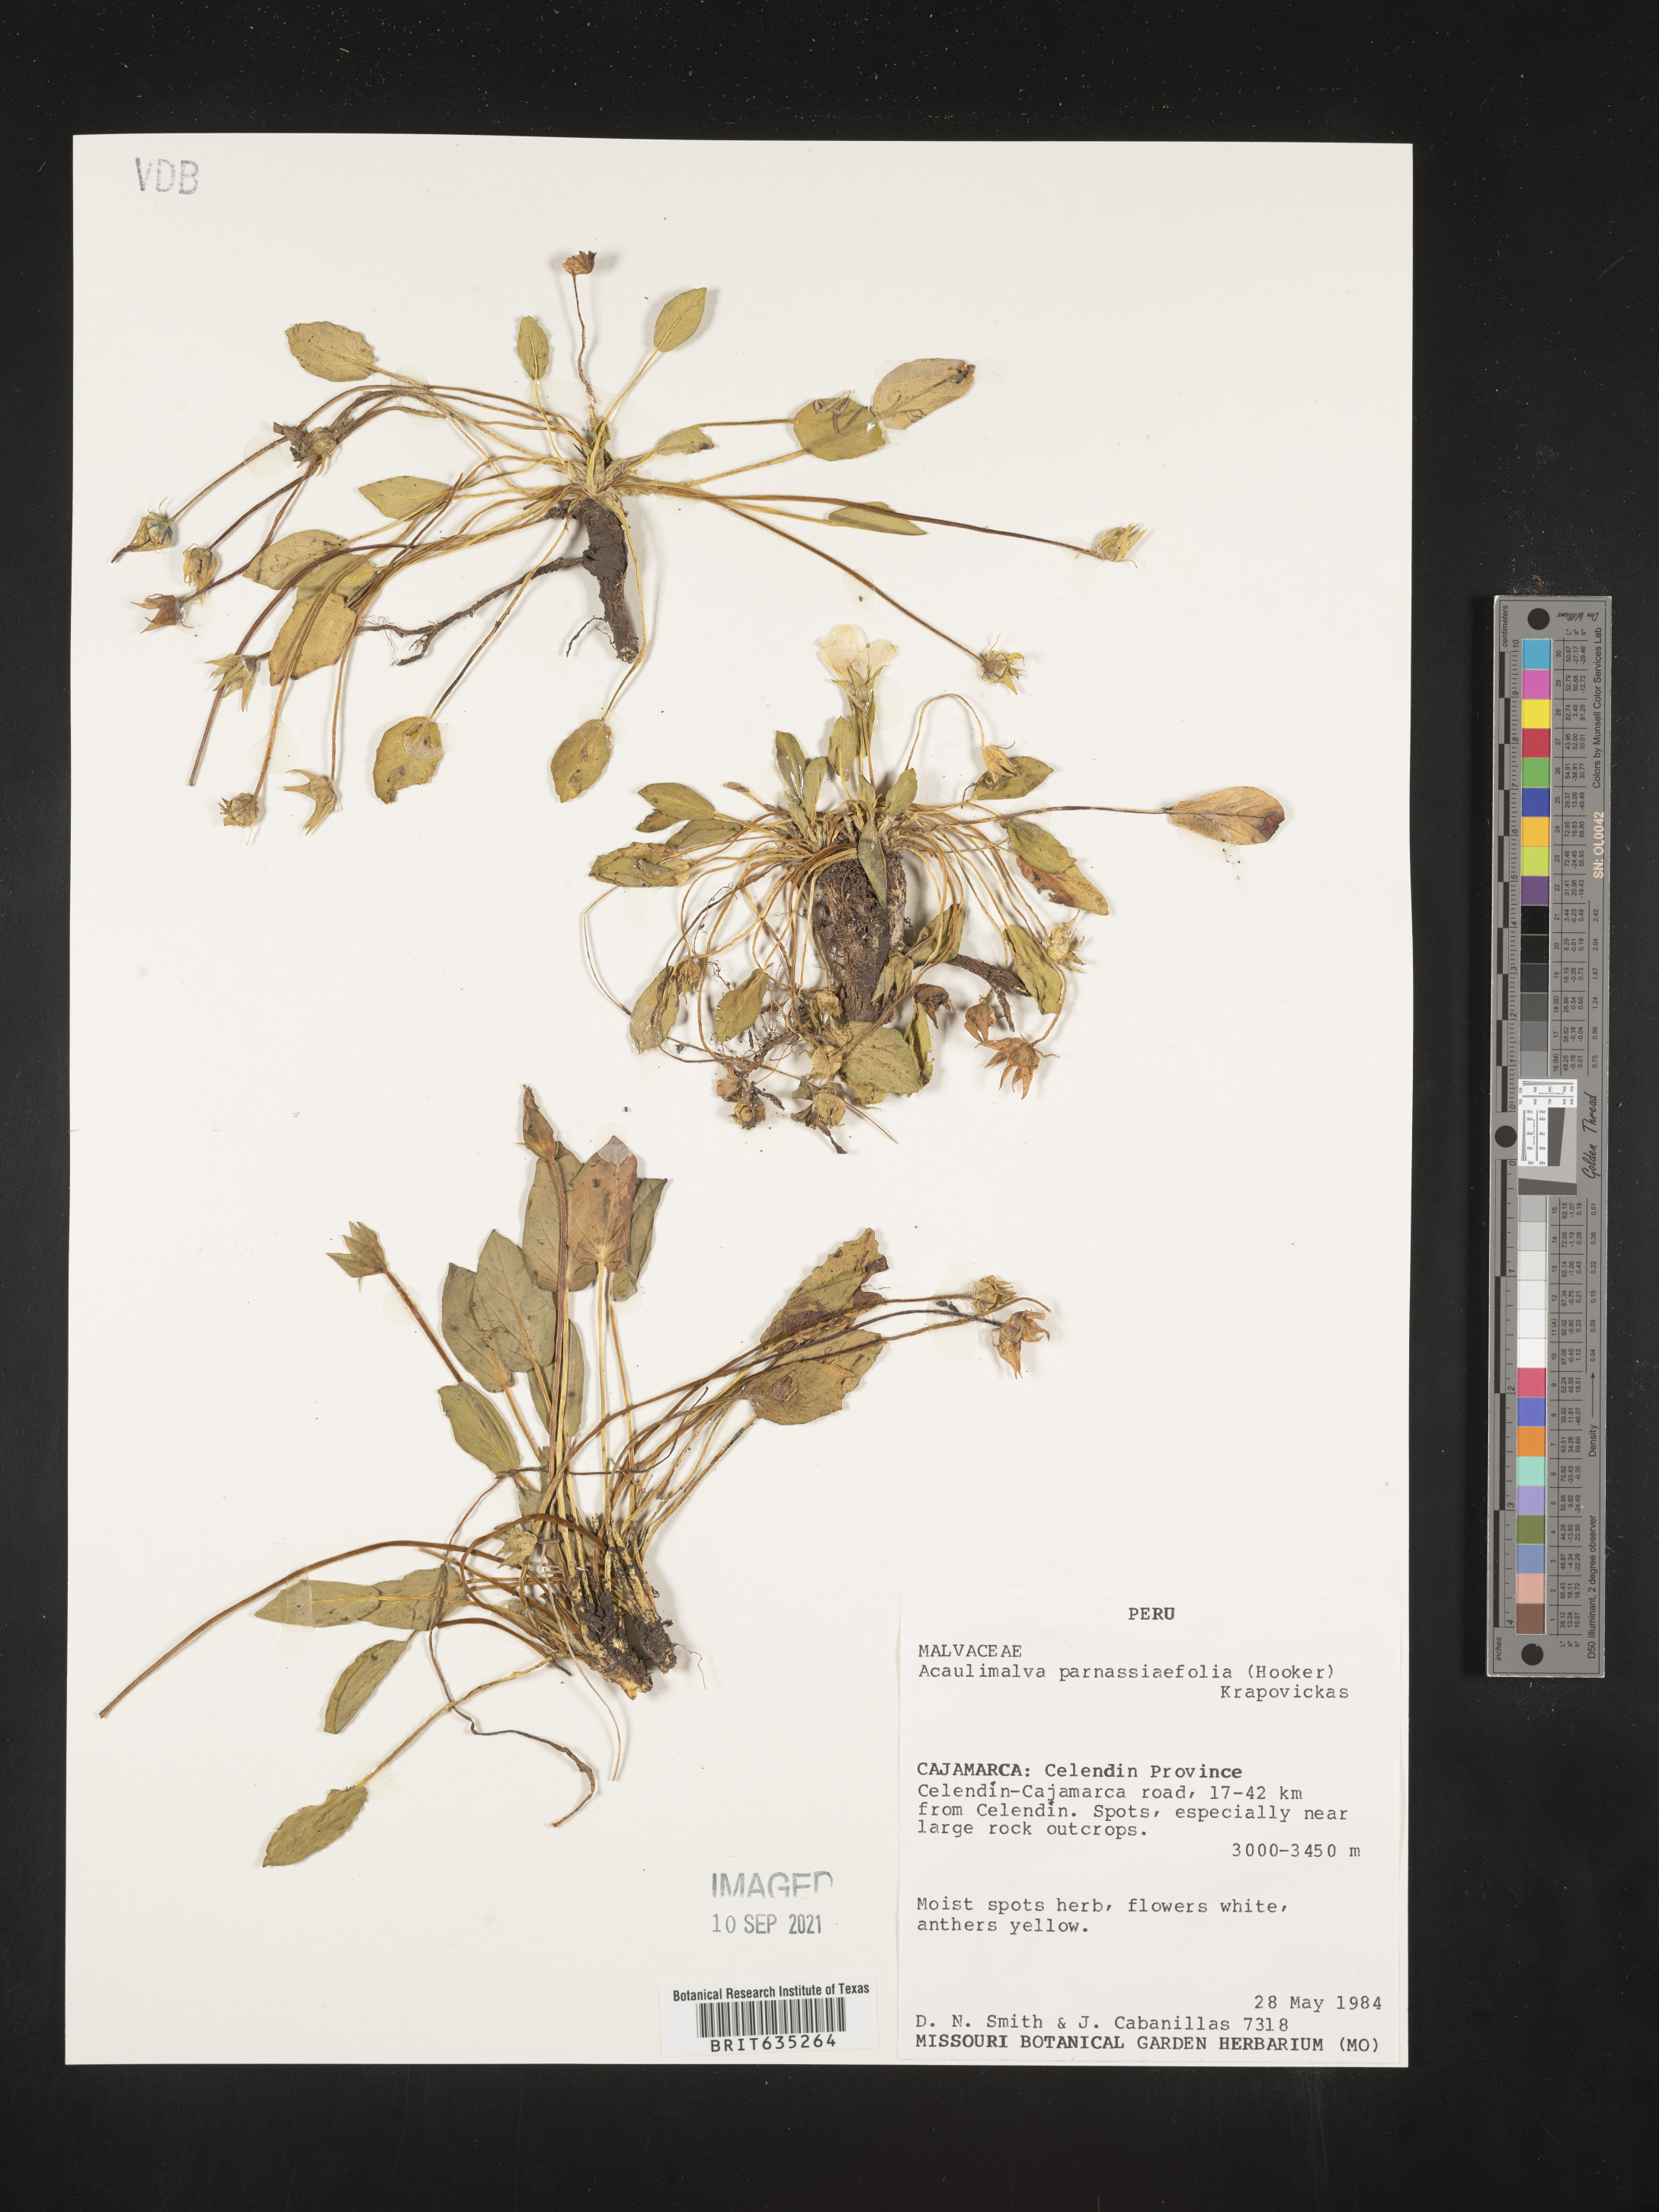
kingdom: Plantae
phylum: Tracheophyta
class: Magnoliopsida
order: Malvales
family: Malvaceae
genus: Acaulimalva
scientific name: Acaulimalva
